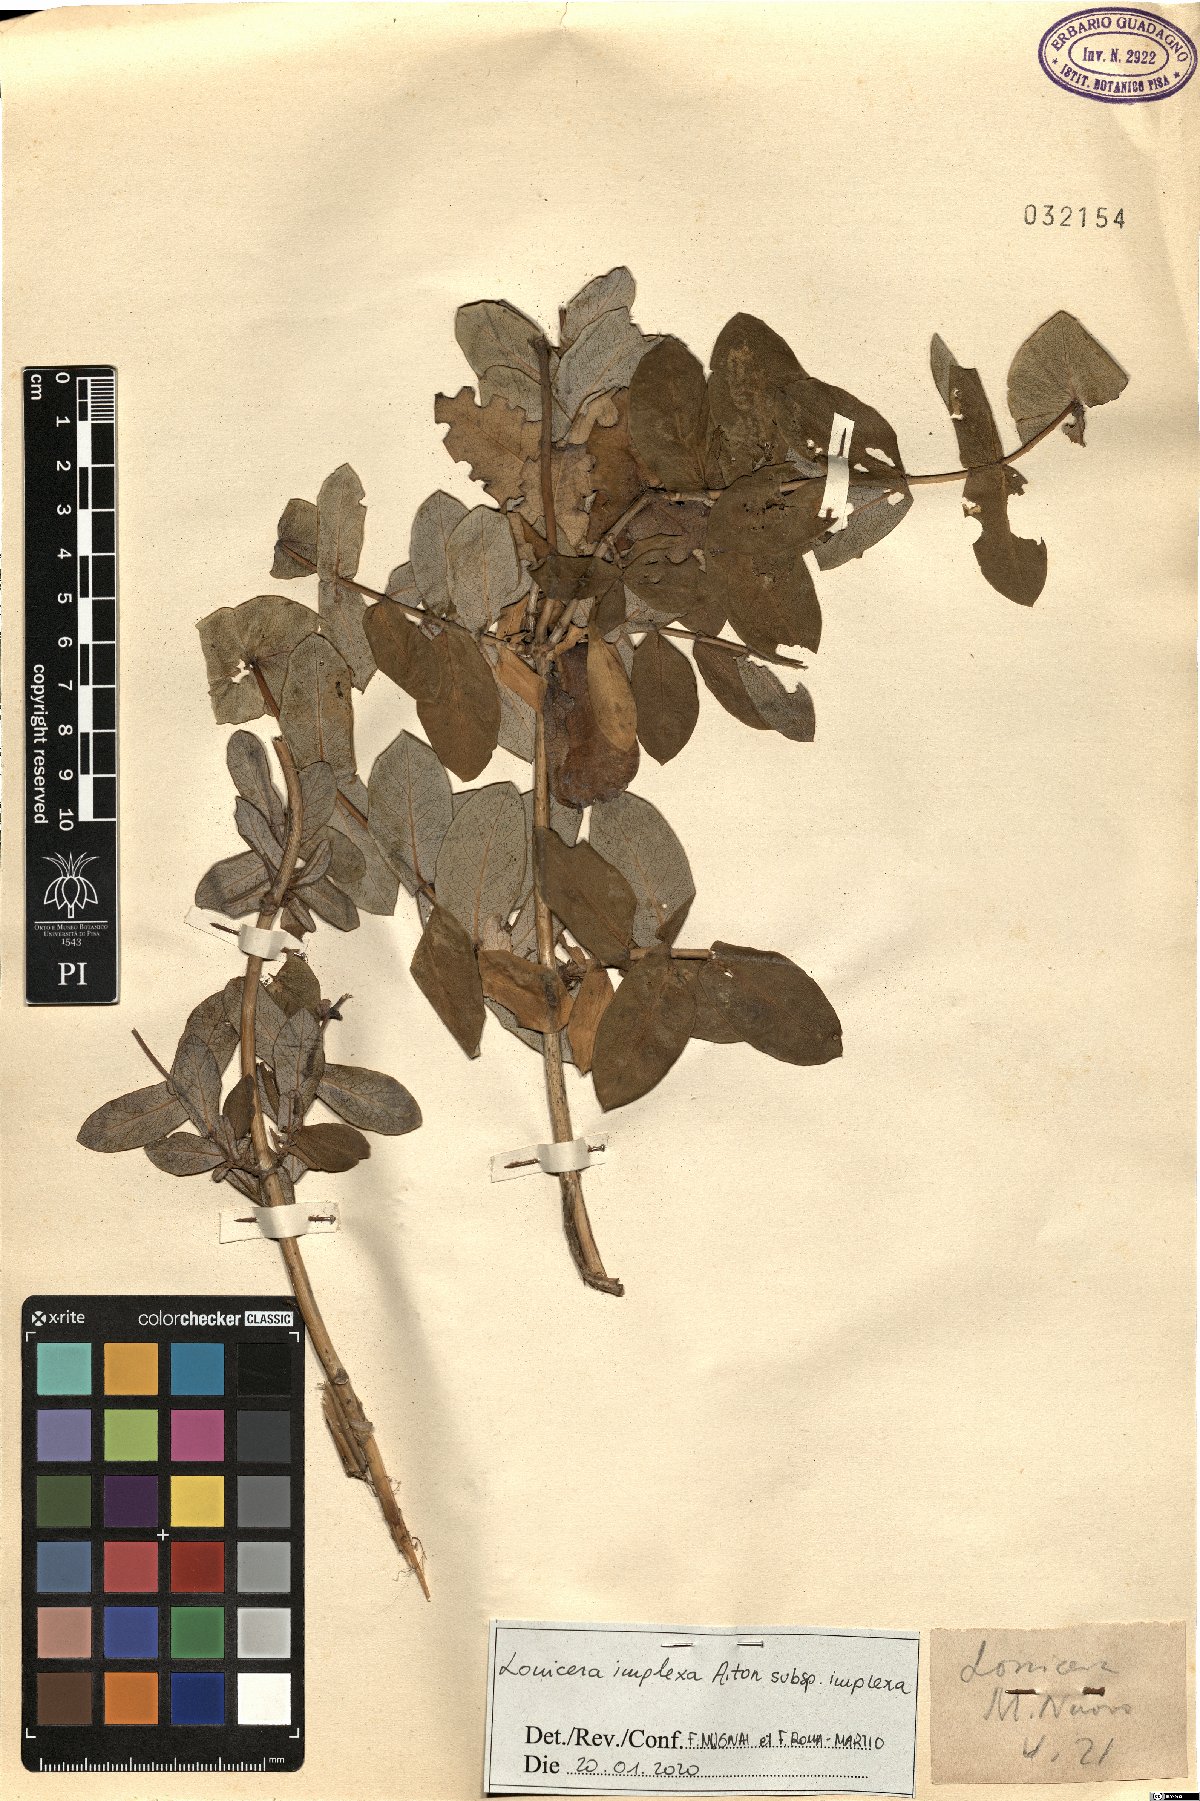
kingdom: Plantae
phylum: Tracheophyta
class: Magnoliopsida
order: Dipsacales
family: Caprifoliaceae
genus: Lonicera
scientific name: Lonicera implexa
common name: Minorca honeysuckle
